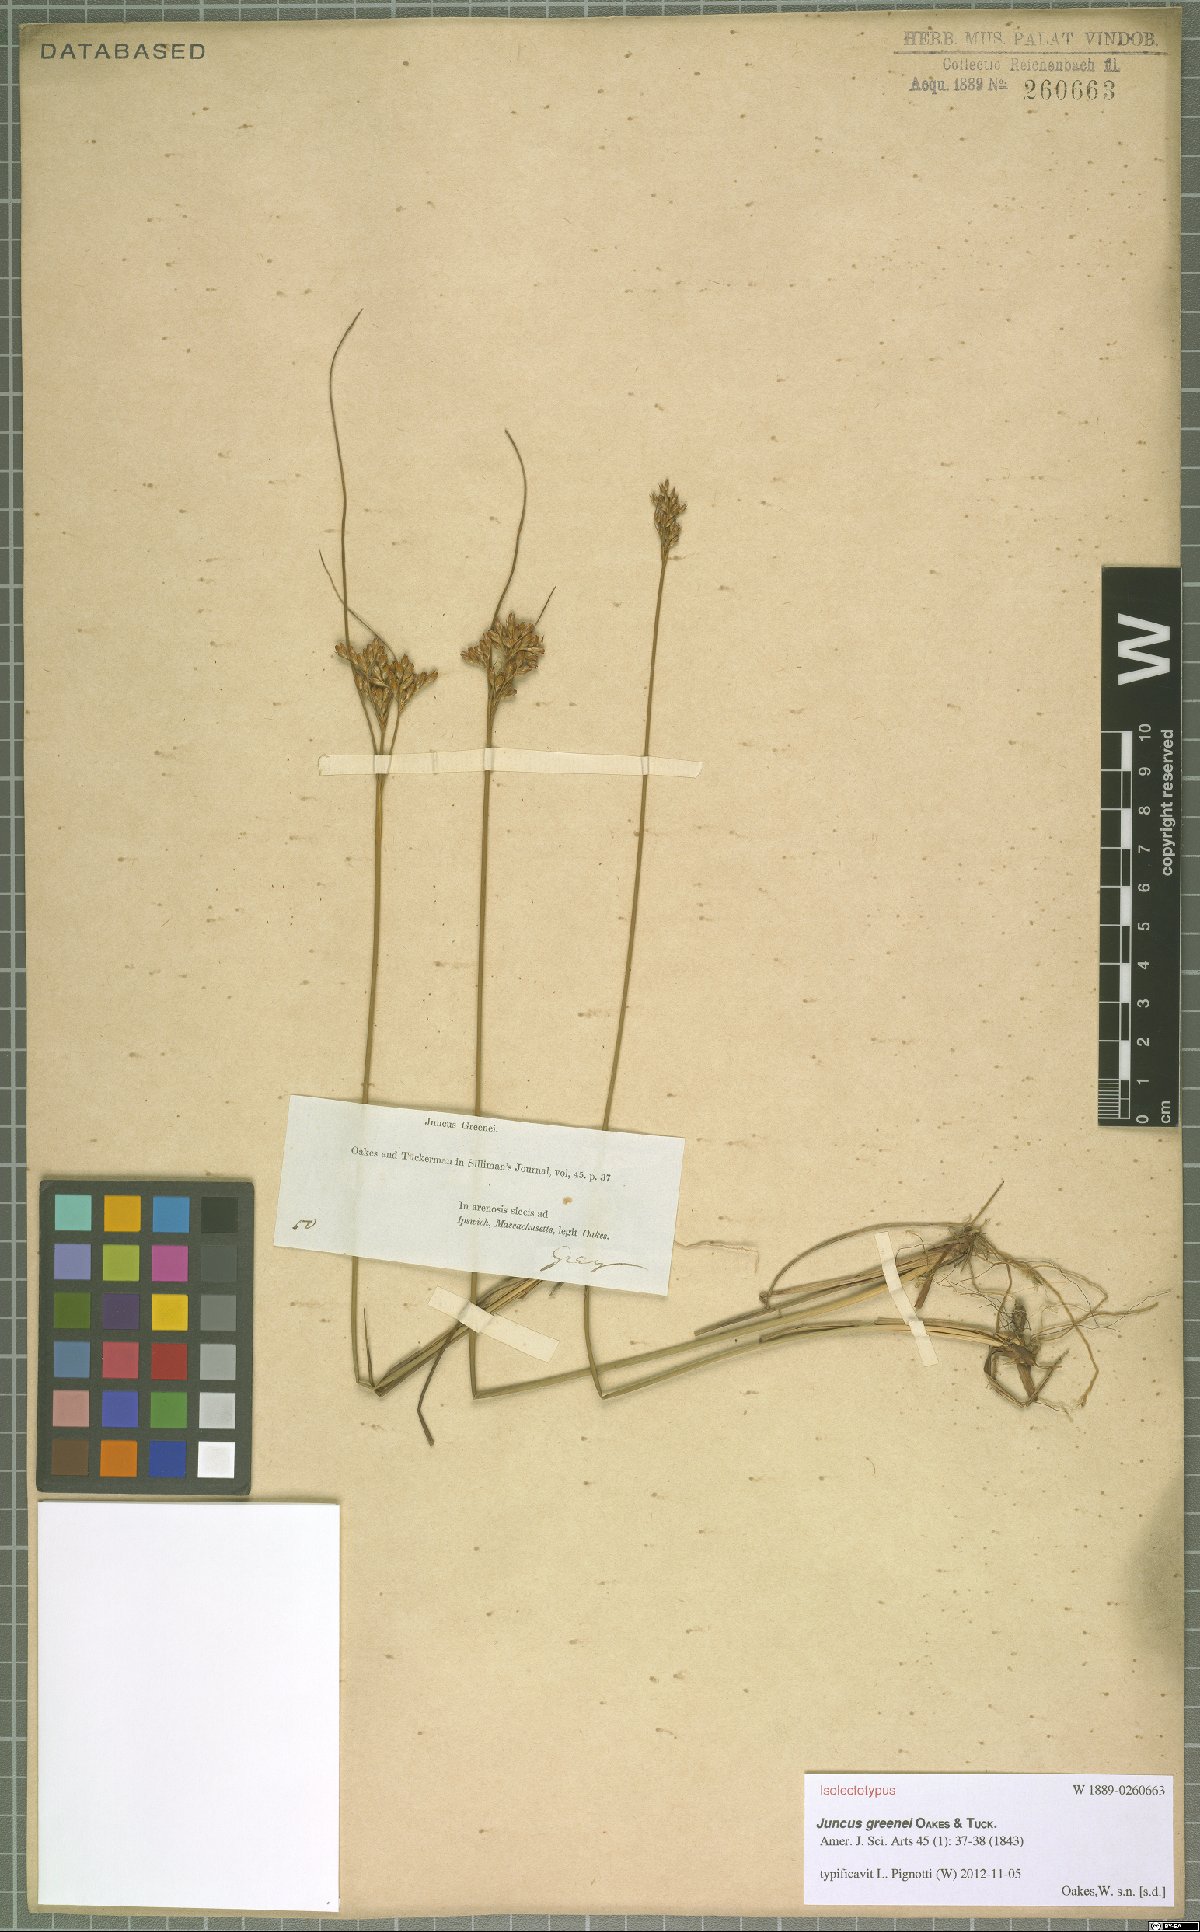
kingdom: Plantae
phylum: Tracheophyta
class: Liliopsida
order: Poales
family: Juncaceae
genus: Juncus
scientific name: Juncus greenei
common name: Greene's rush
